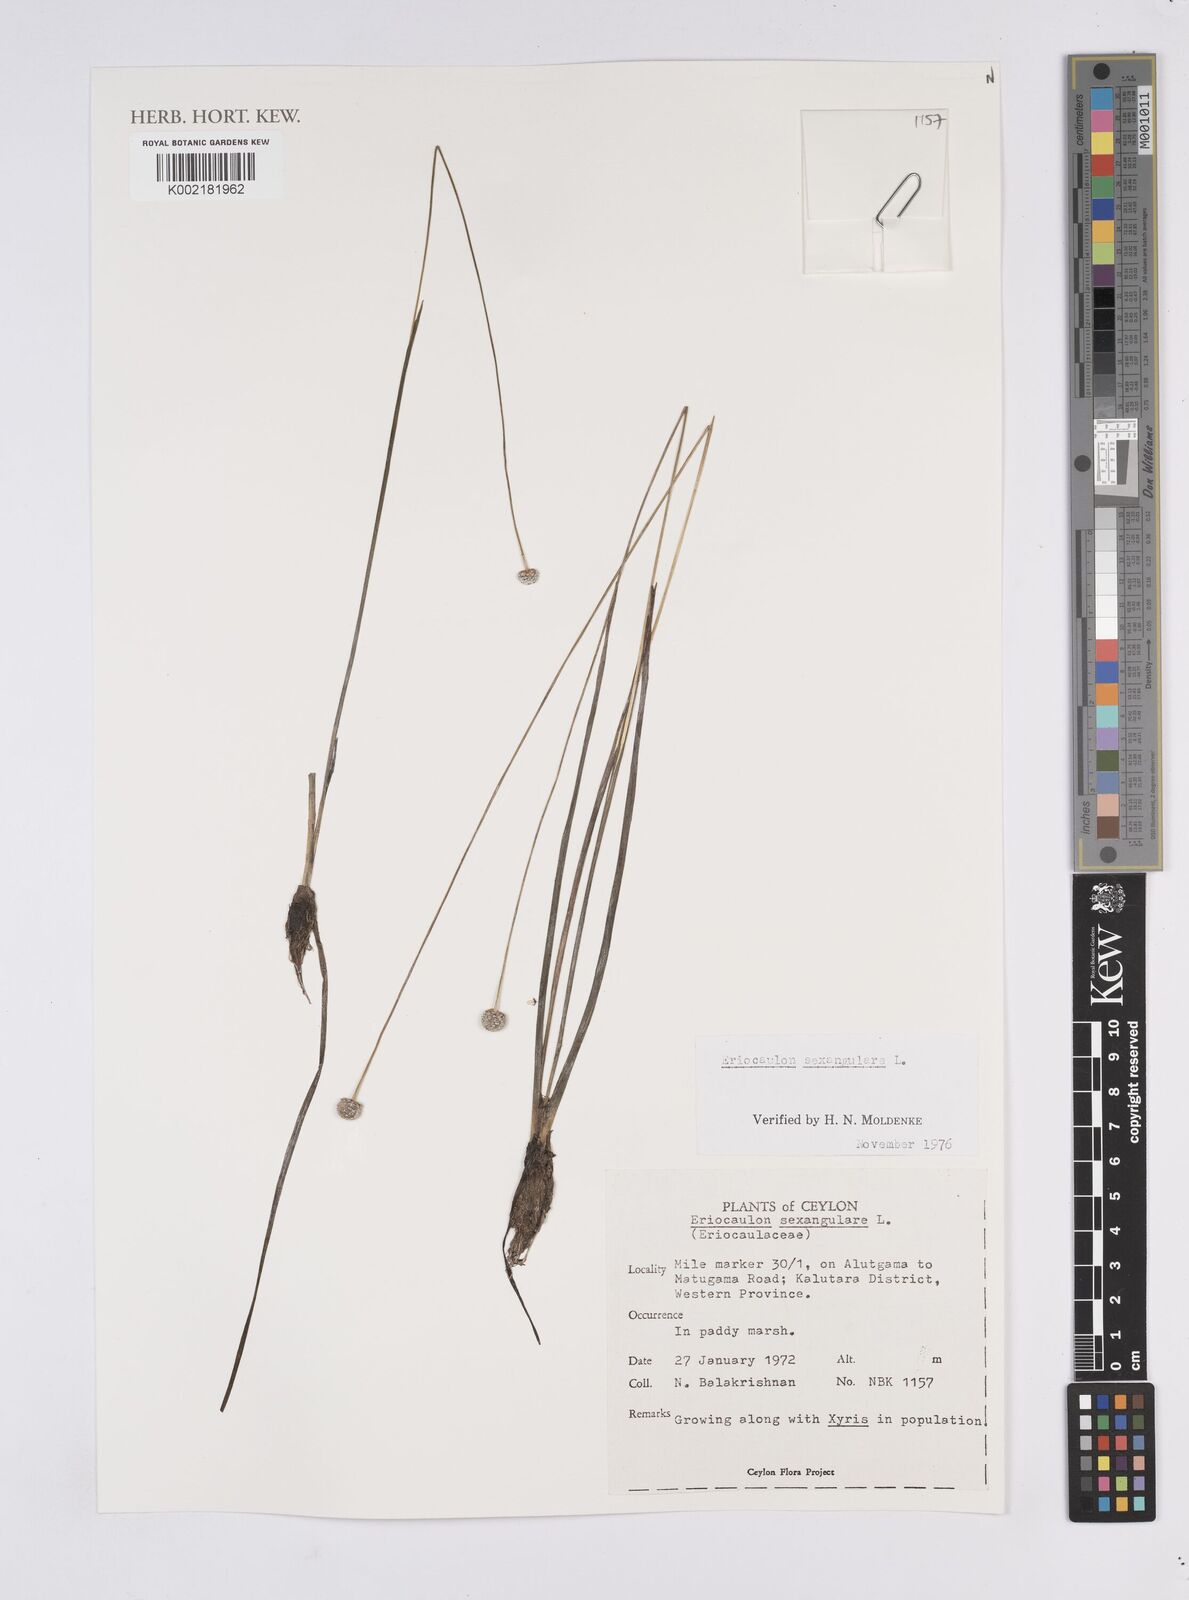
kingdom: Plantae
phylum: Tracheophyta
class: Liliopsida
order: Poales
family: Eriocaulaceae
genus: Eriocaulon
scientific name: Eriocaulon sexangulare
